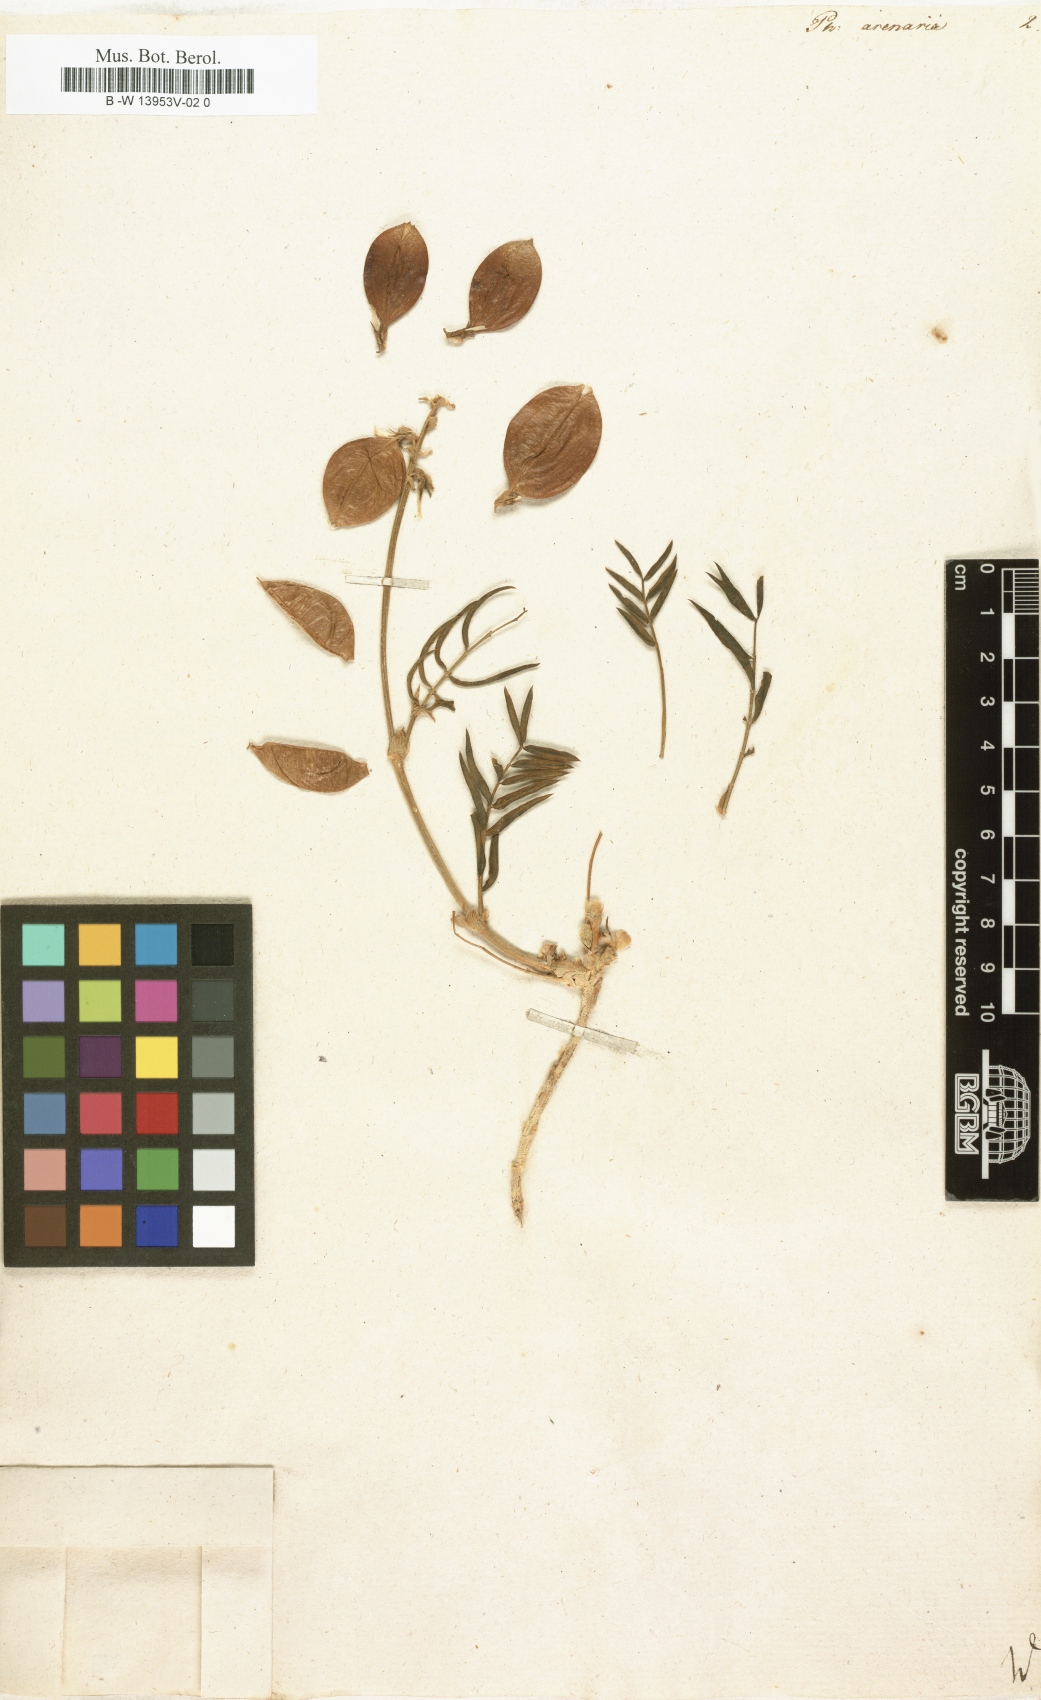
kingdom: Plantae
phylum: Tracheophyta
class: Magnoliopsida
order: Fabales
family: Fabaceae
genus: Astragalus
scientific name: Astragalus chorinensis
